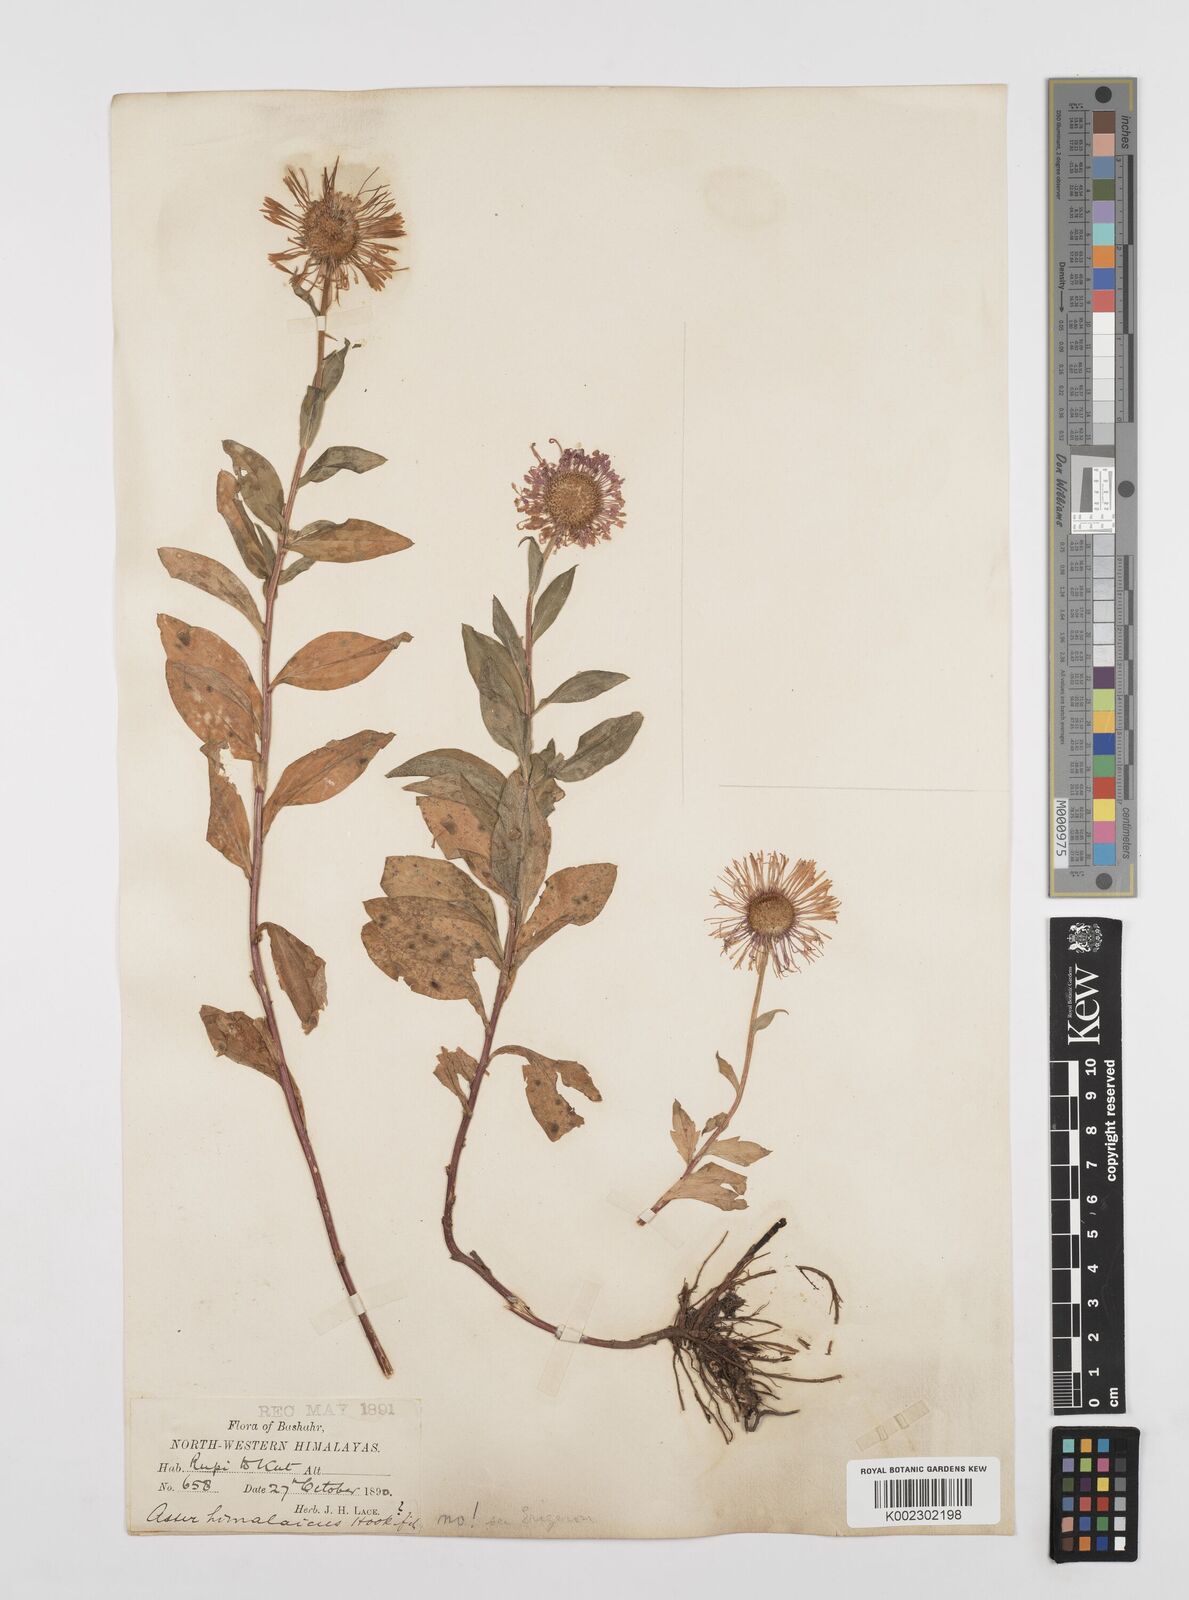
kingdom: Plantae
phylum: Tracheophyta
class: Magnoliopsida
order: Asterales
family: Asteraceae
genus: Erigeron
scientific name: Erigeron multiradiatus
